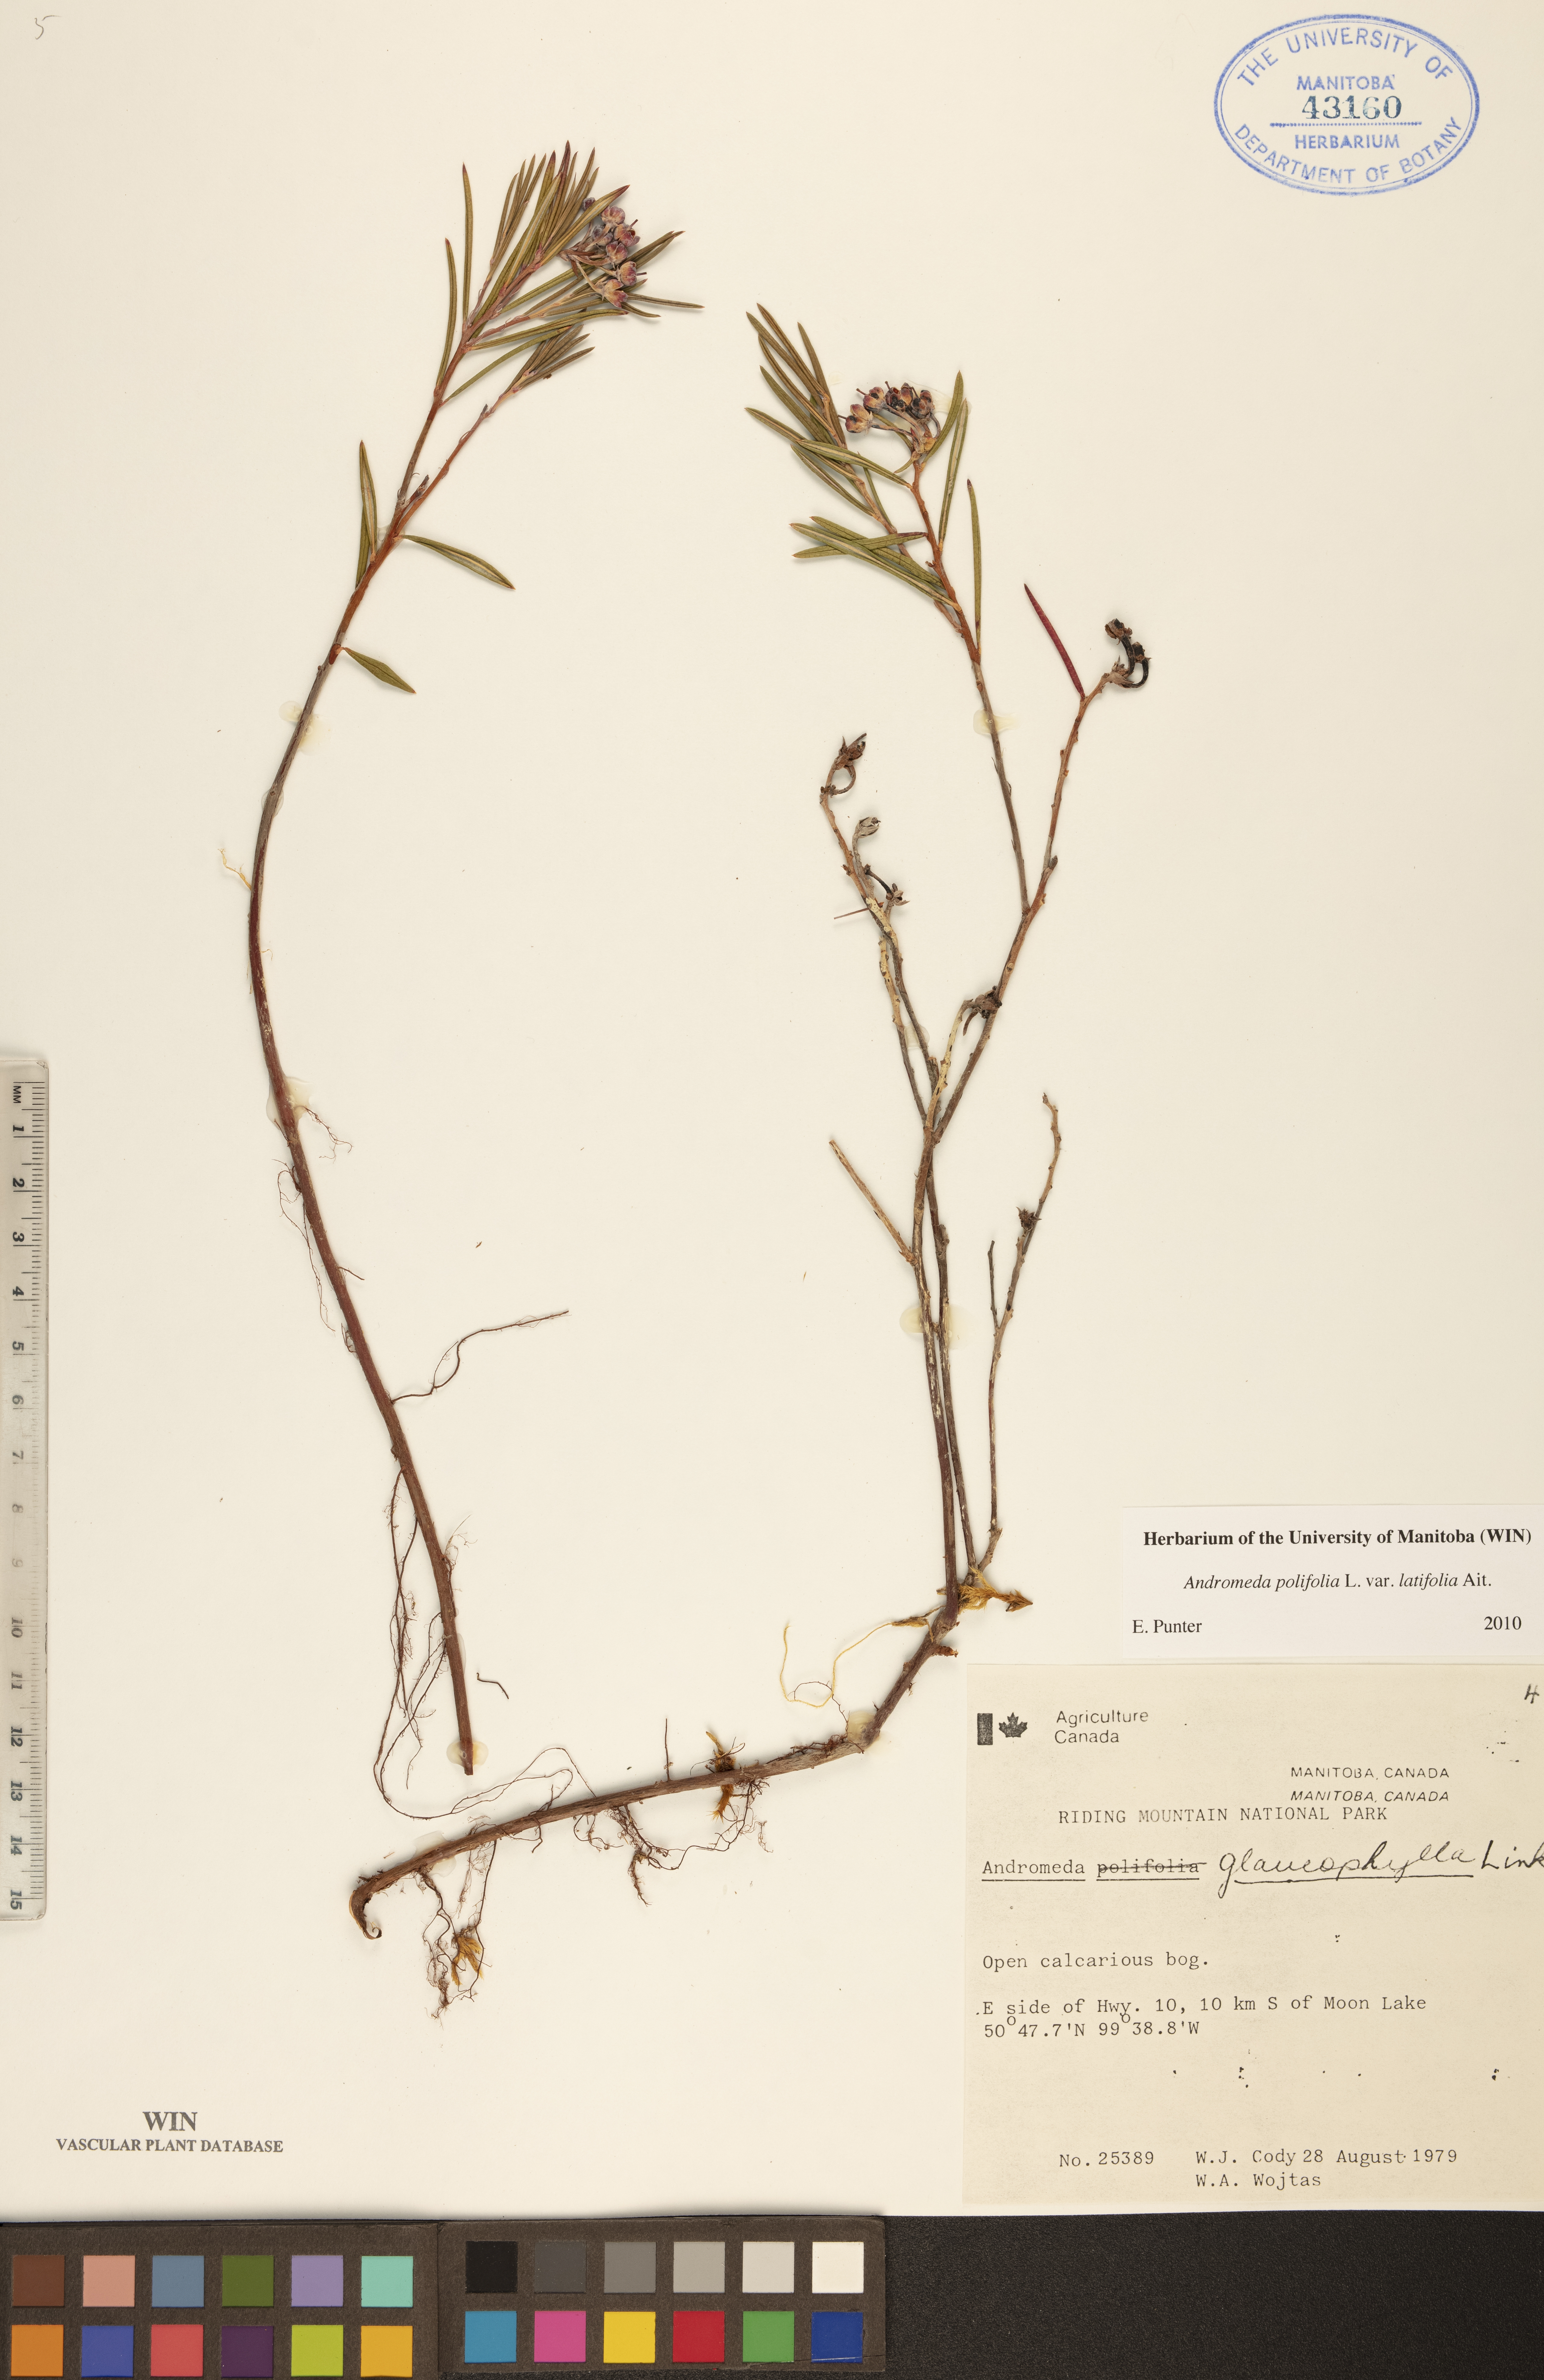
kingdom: Plantae
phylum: Tracheophyta
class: Magnoliopsida
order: Ericales
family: Ericaceae
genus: Andromeda
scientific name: Andromeda polifolia
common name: Bog-rosemary
